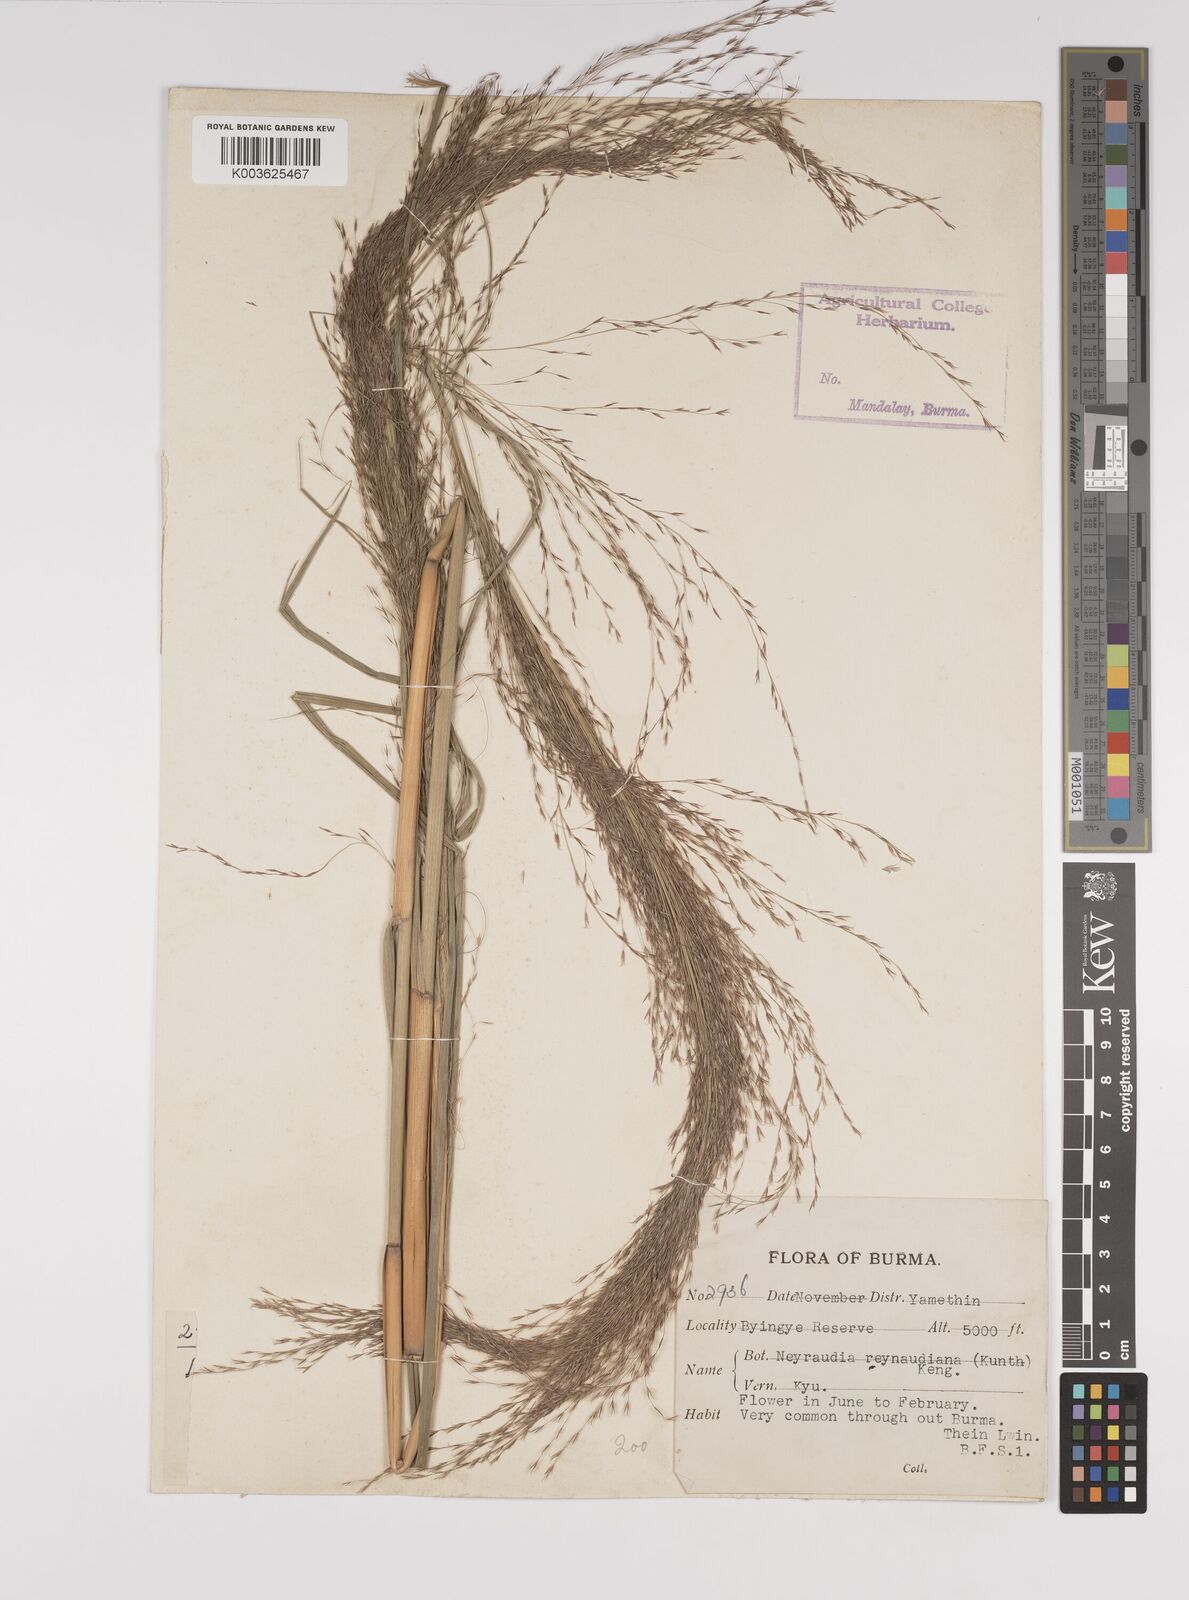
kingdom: Plantae
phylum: Tracheophyta
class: Liliopsida
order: Poales
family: Poaceae
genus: Neyraudia
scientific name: Neyraudia reynaudiana
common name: Silkreed
